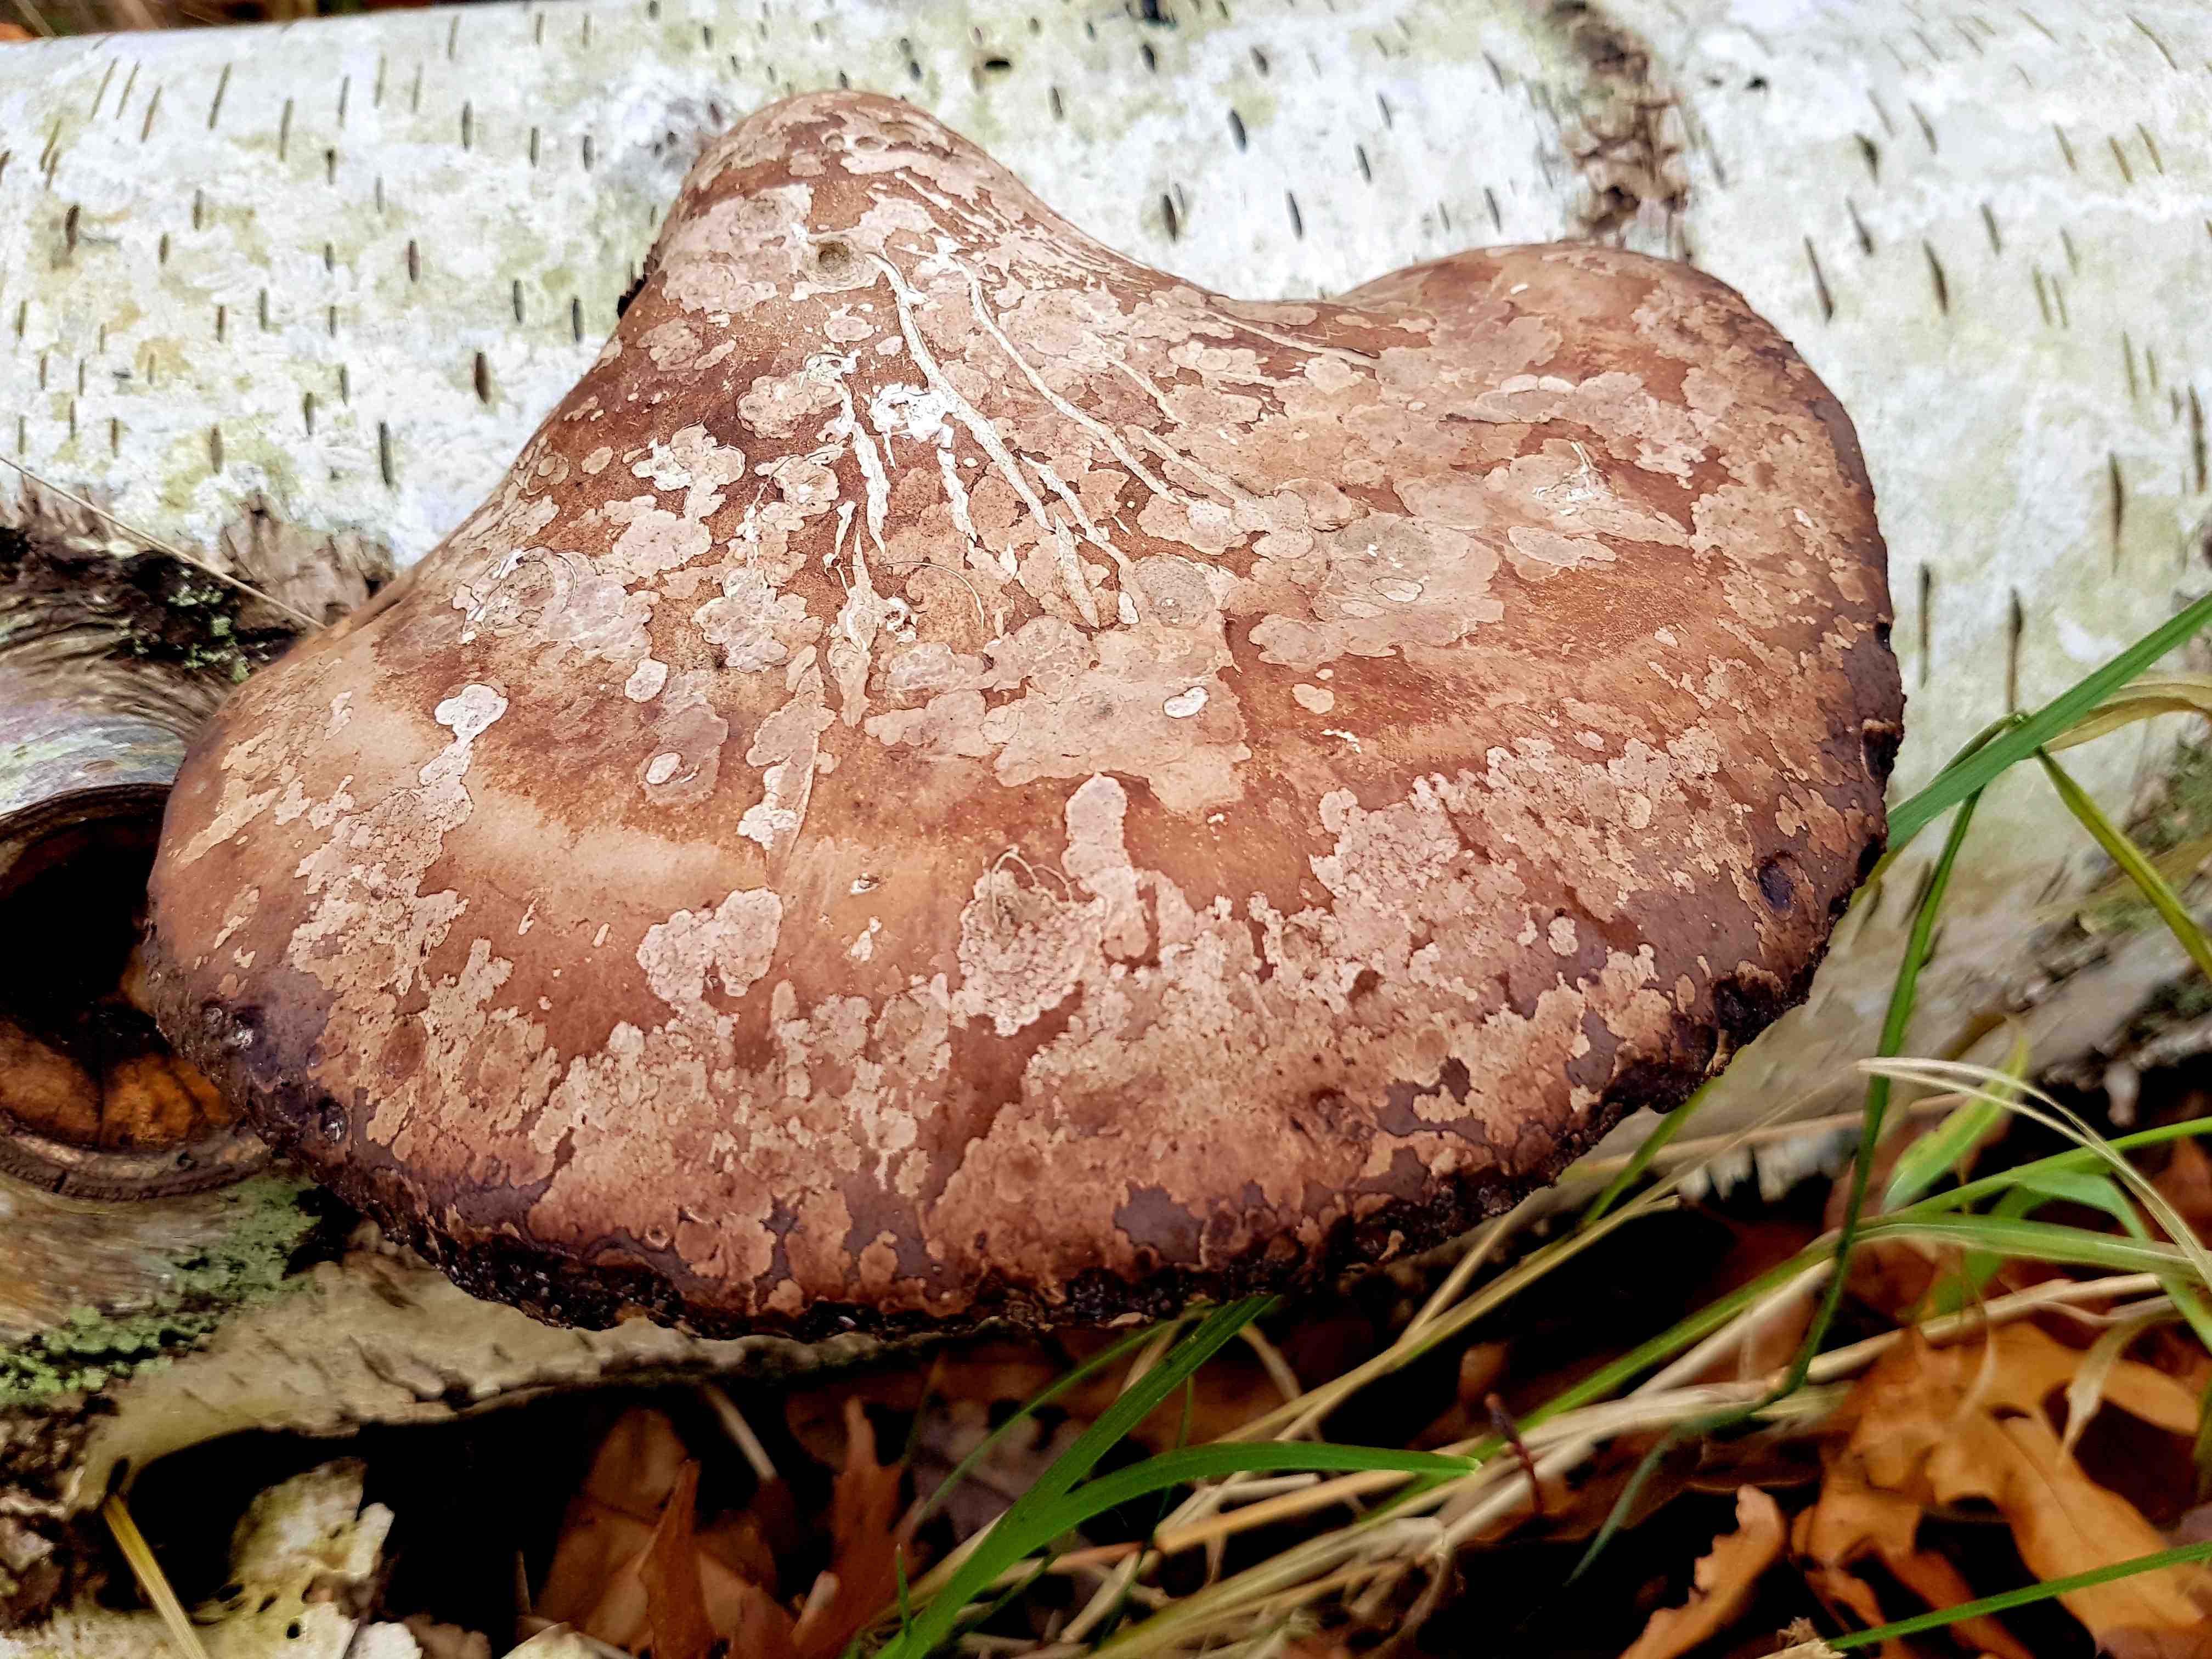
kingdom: Fungi
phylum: Basidiomycota
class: Agaricomycetes
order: Polyporales
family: Fomitopsidaceae
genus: Fomitopsis
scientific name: Fomitopsis betulina
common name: birkeporesvamp
